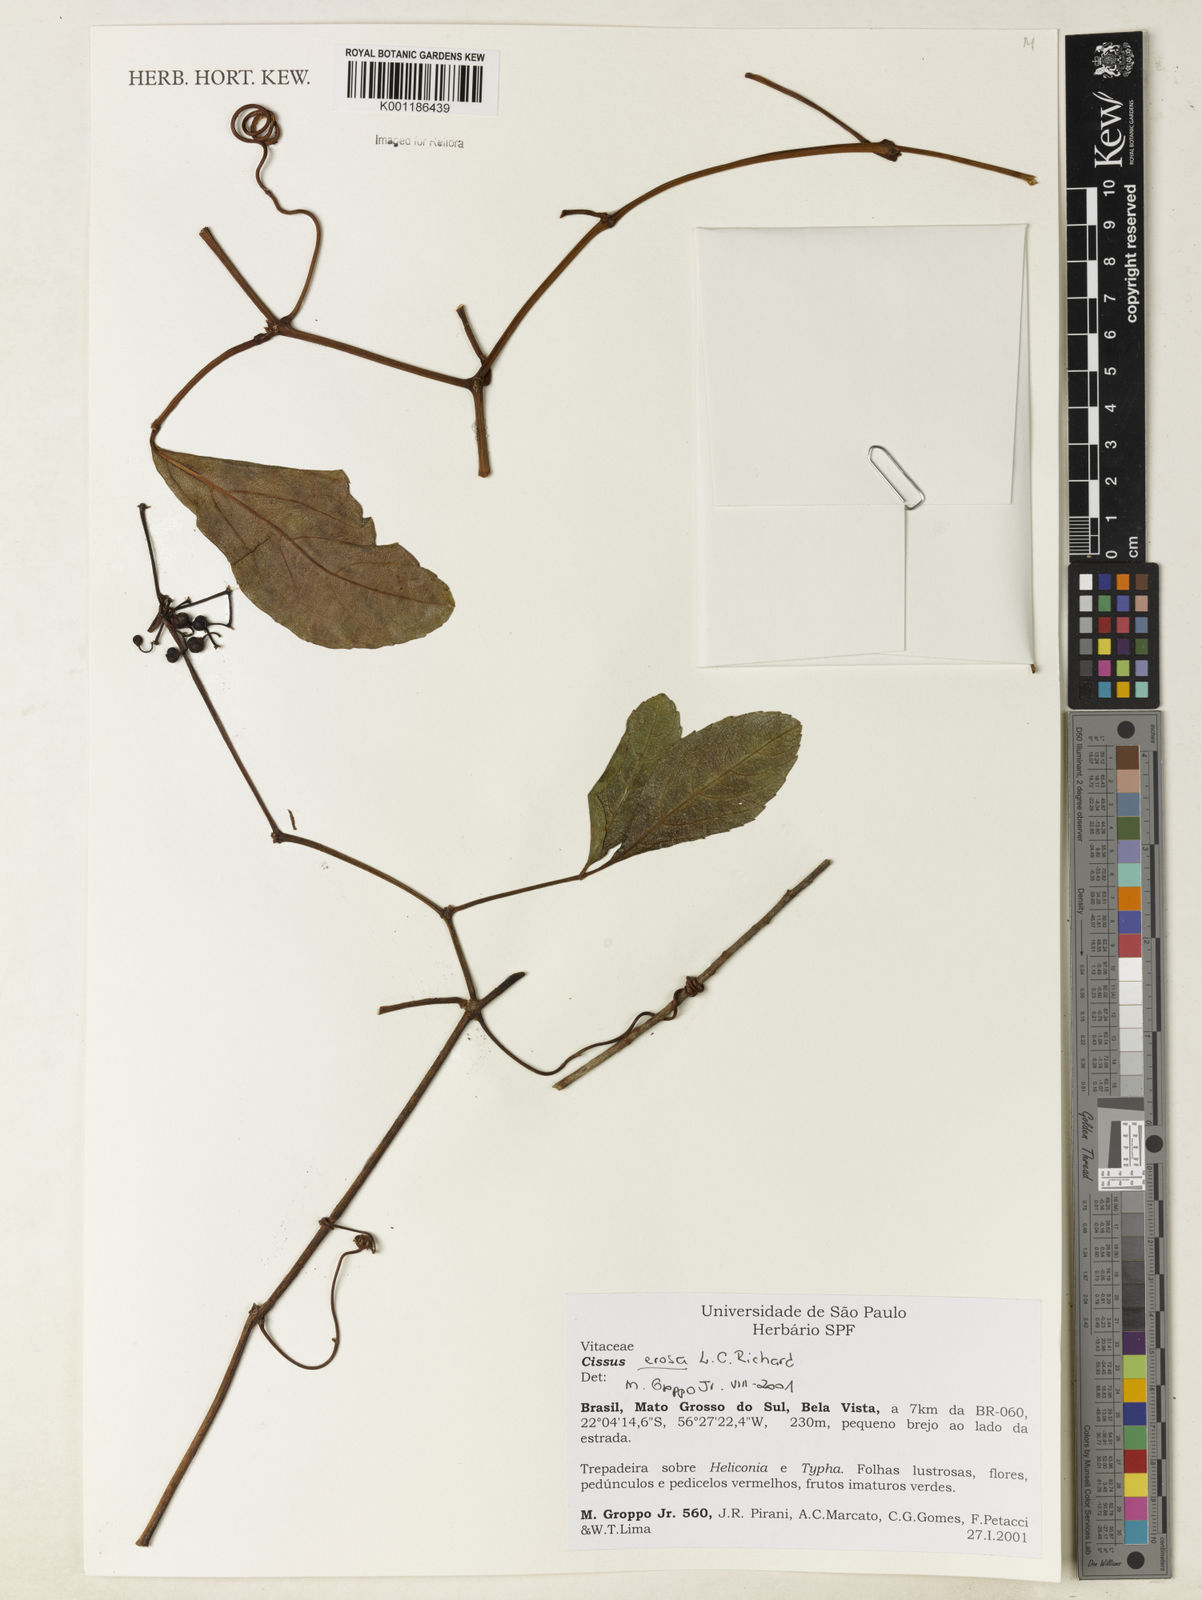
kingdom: Plantae
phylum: Tracheophyta
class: Magnoliopsida
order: Vitales
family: Vitaceae
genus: Cissus
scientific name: Cissus erosa
